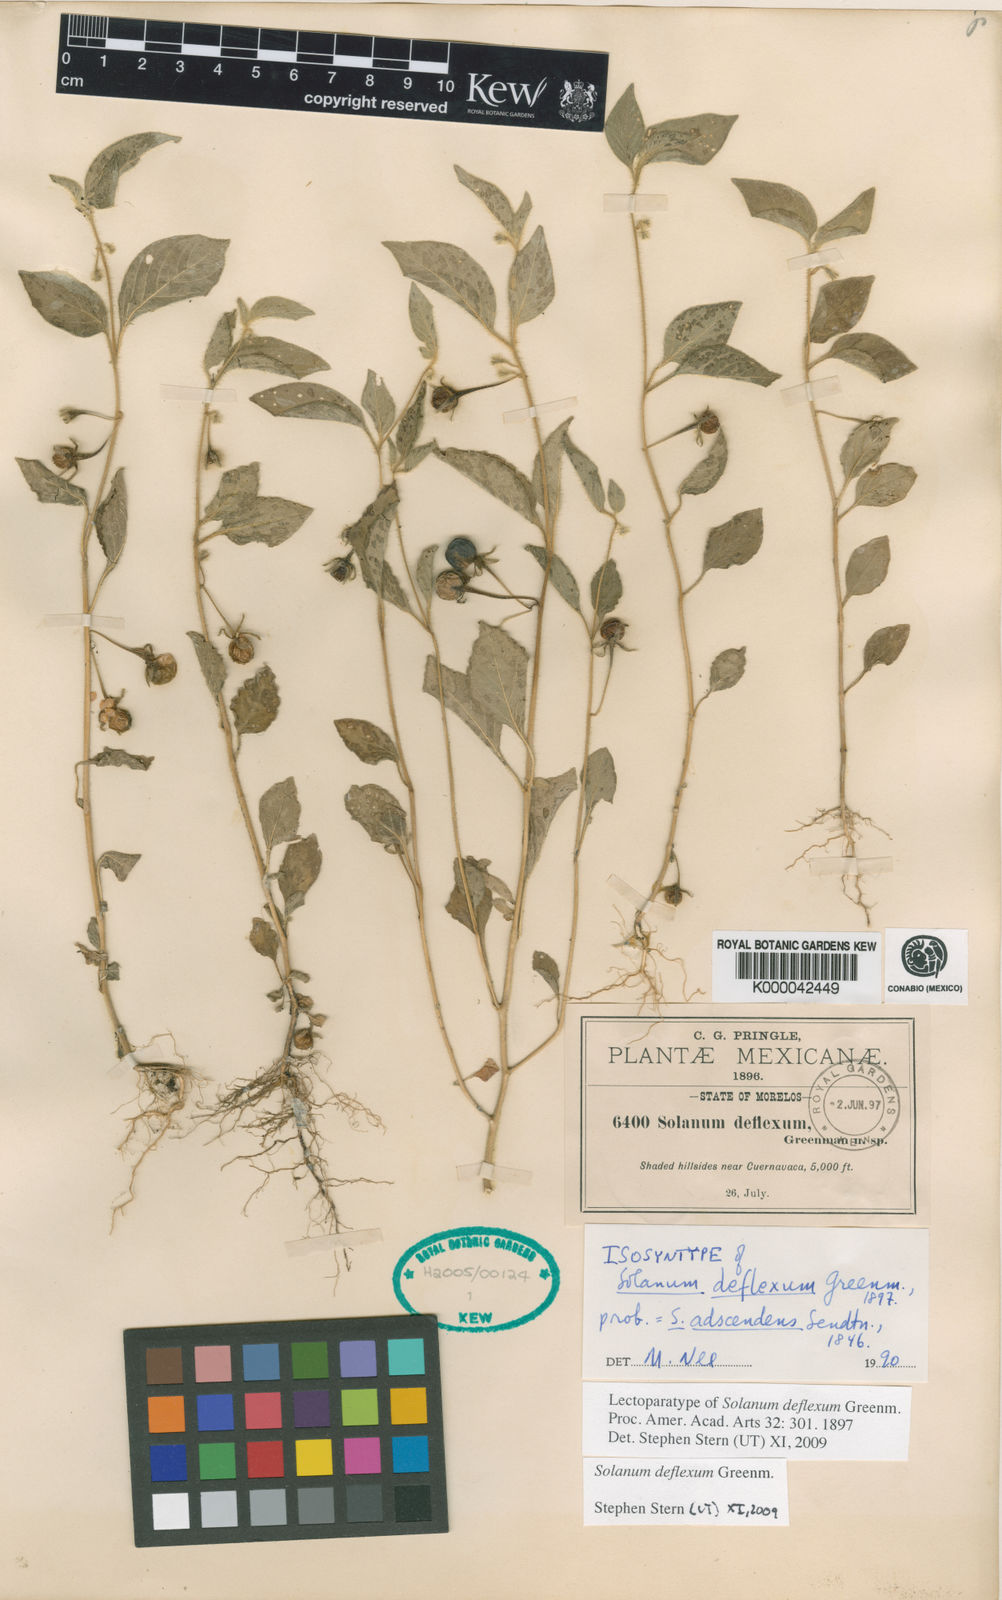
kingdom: Plantae
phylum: Tracheophyta
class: Magnoliopsida
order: Solanales
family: Solanaceae
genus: Solanum
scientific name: Solanum deflexum
